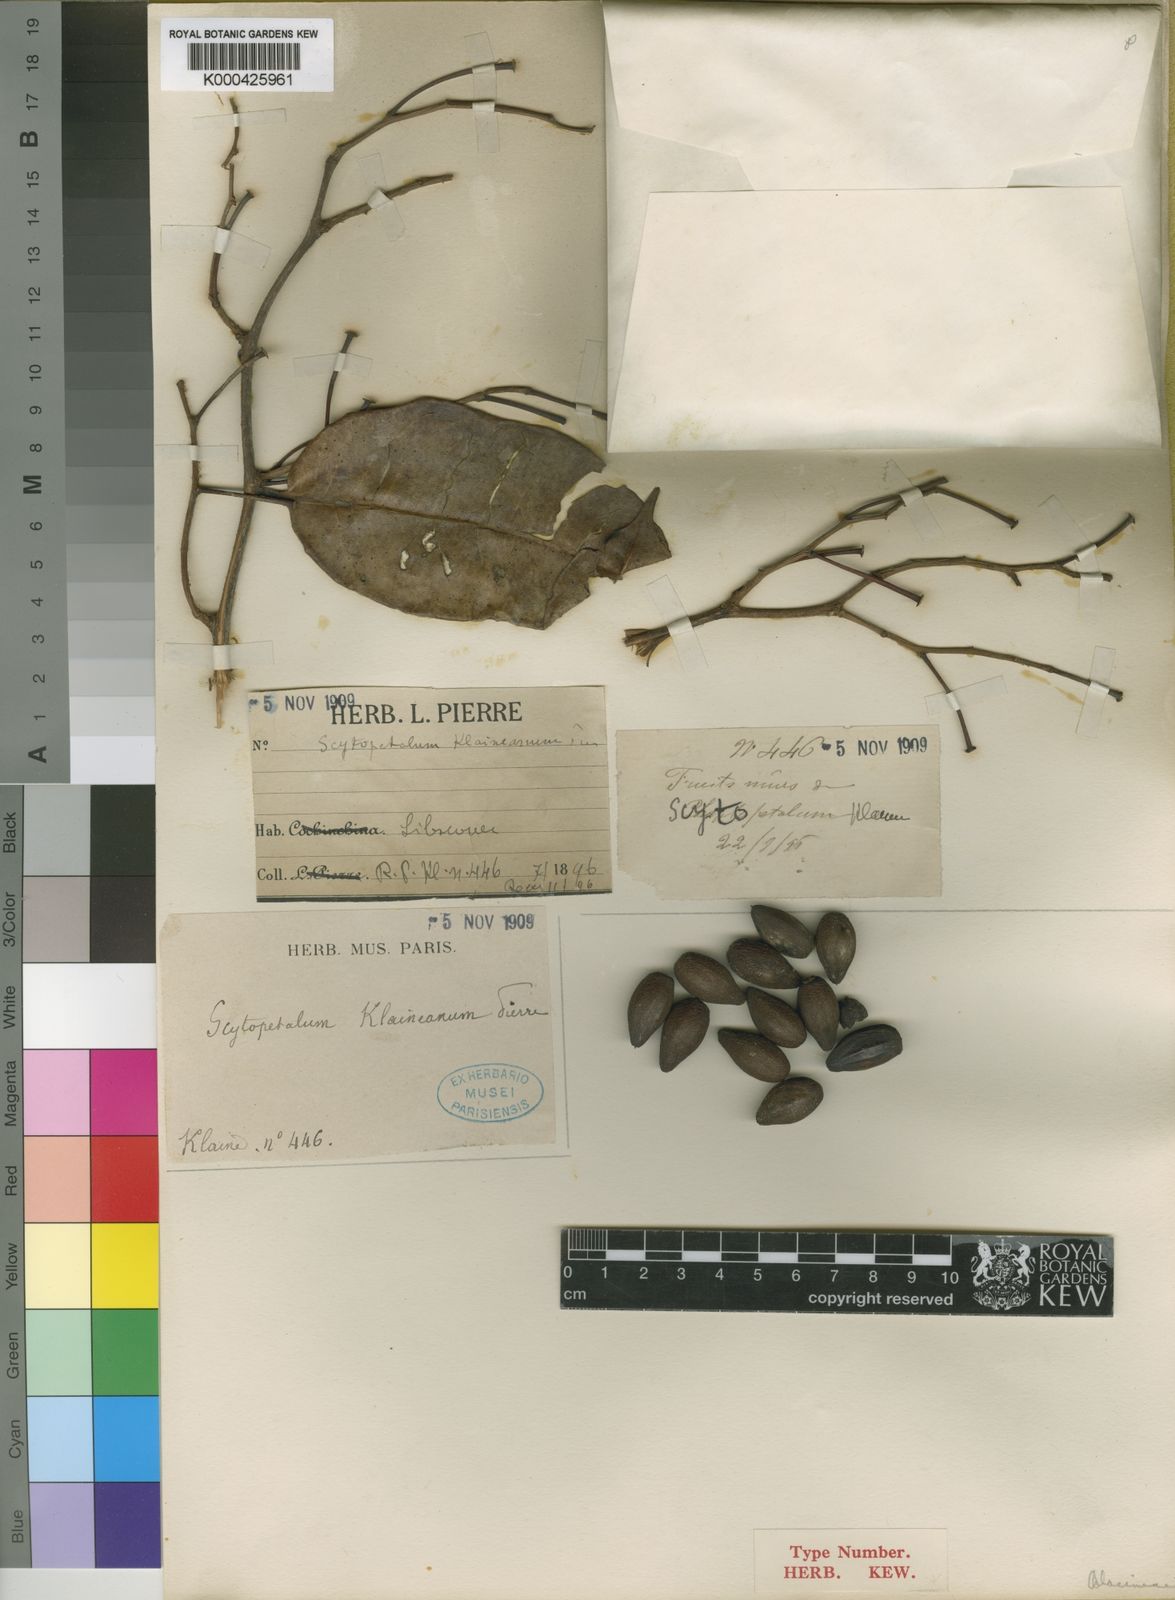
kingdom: Plantae
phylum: Tracheophyta
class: Magnoliopsida
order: Ericales
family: Lecythidaceae
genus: Scytopetalum
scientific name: Scytopetalum klaineanum
